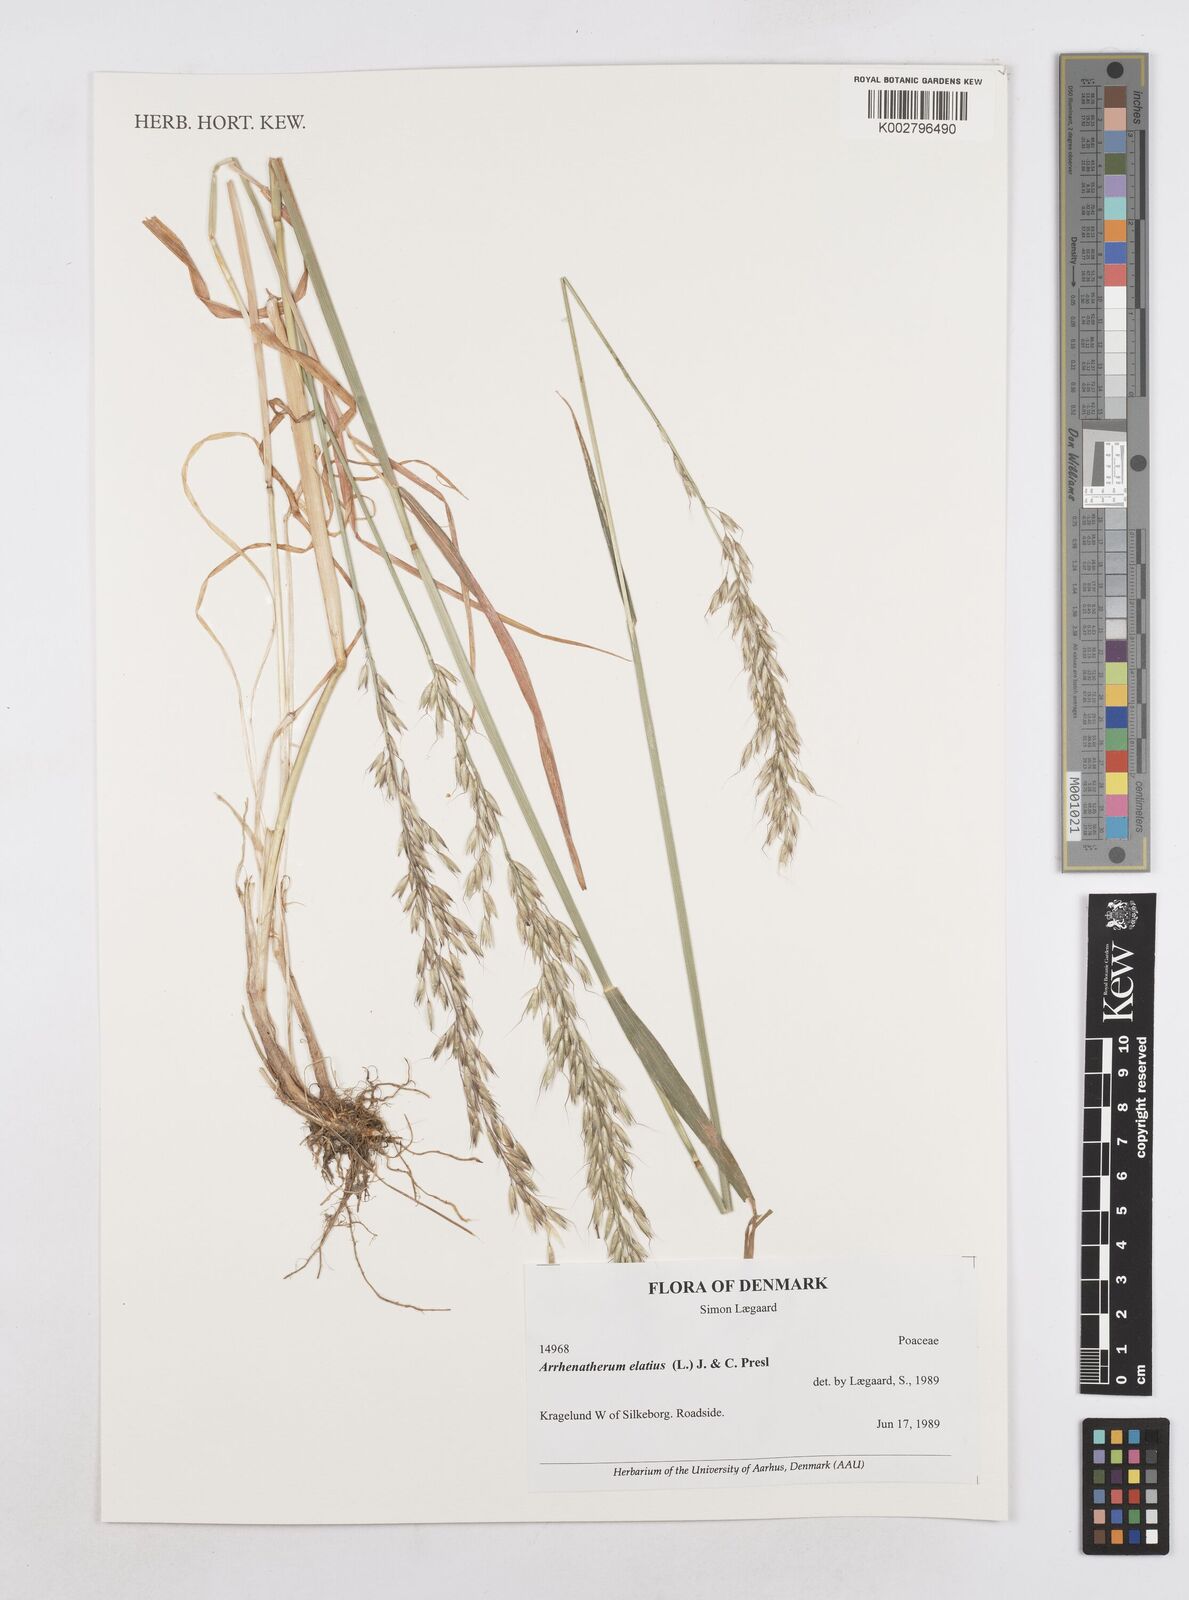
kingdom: Plantae
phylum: Tracheophyta
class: Liliopsida
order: Poales
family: Poaceae
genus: Arrhenatherum
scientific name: Arrhenatherum elatius
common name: Tall oatgrass
